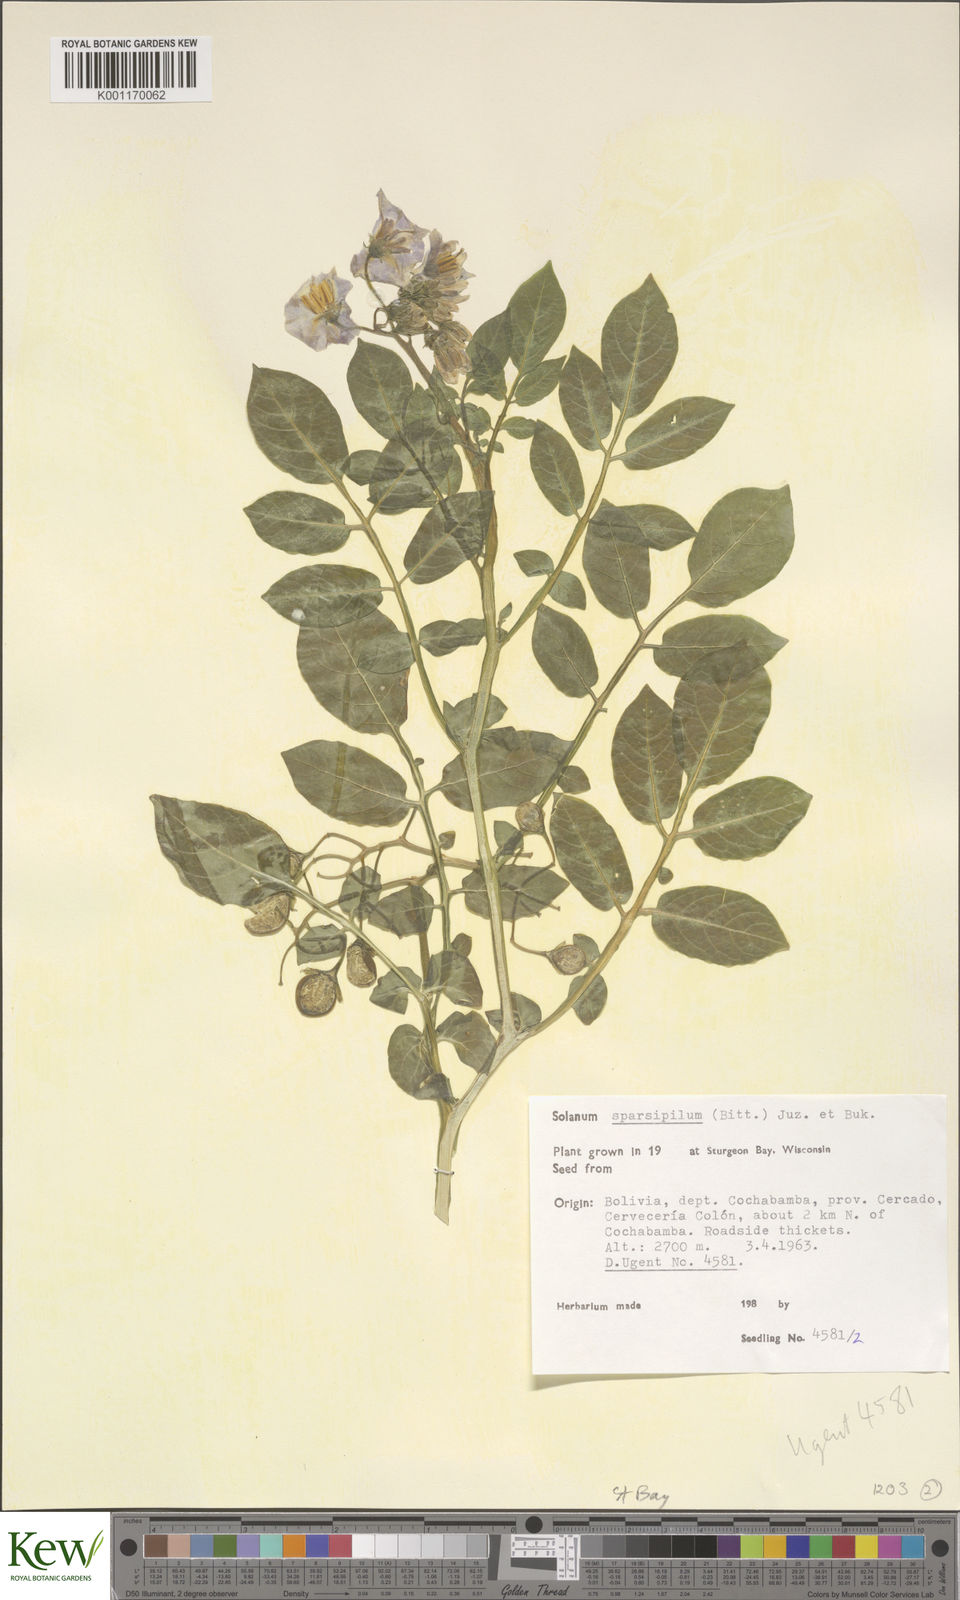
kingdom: Plantae
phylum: Tracheophyta
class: Magnoliopsida
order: Solanales
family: Solanaceae
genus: Solanum
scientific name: Solanum brevicaule
